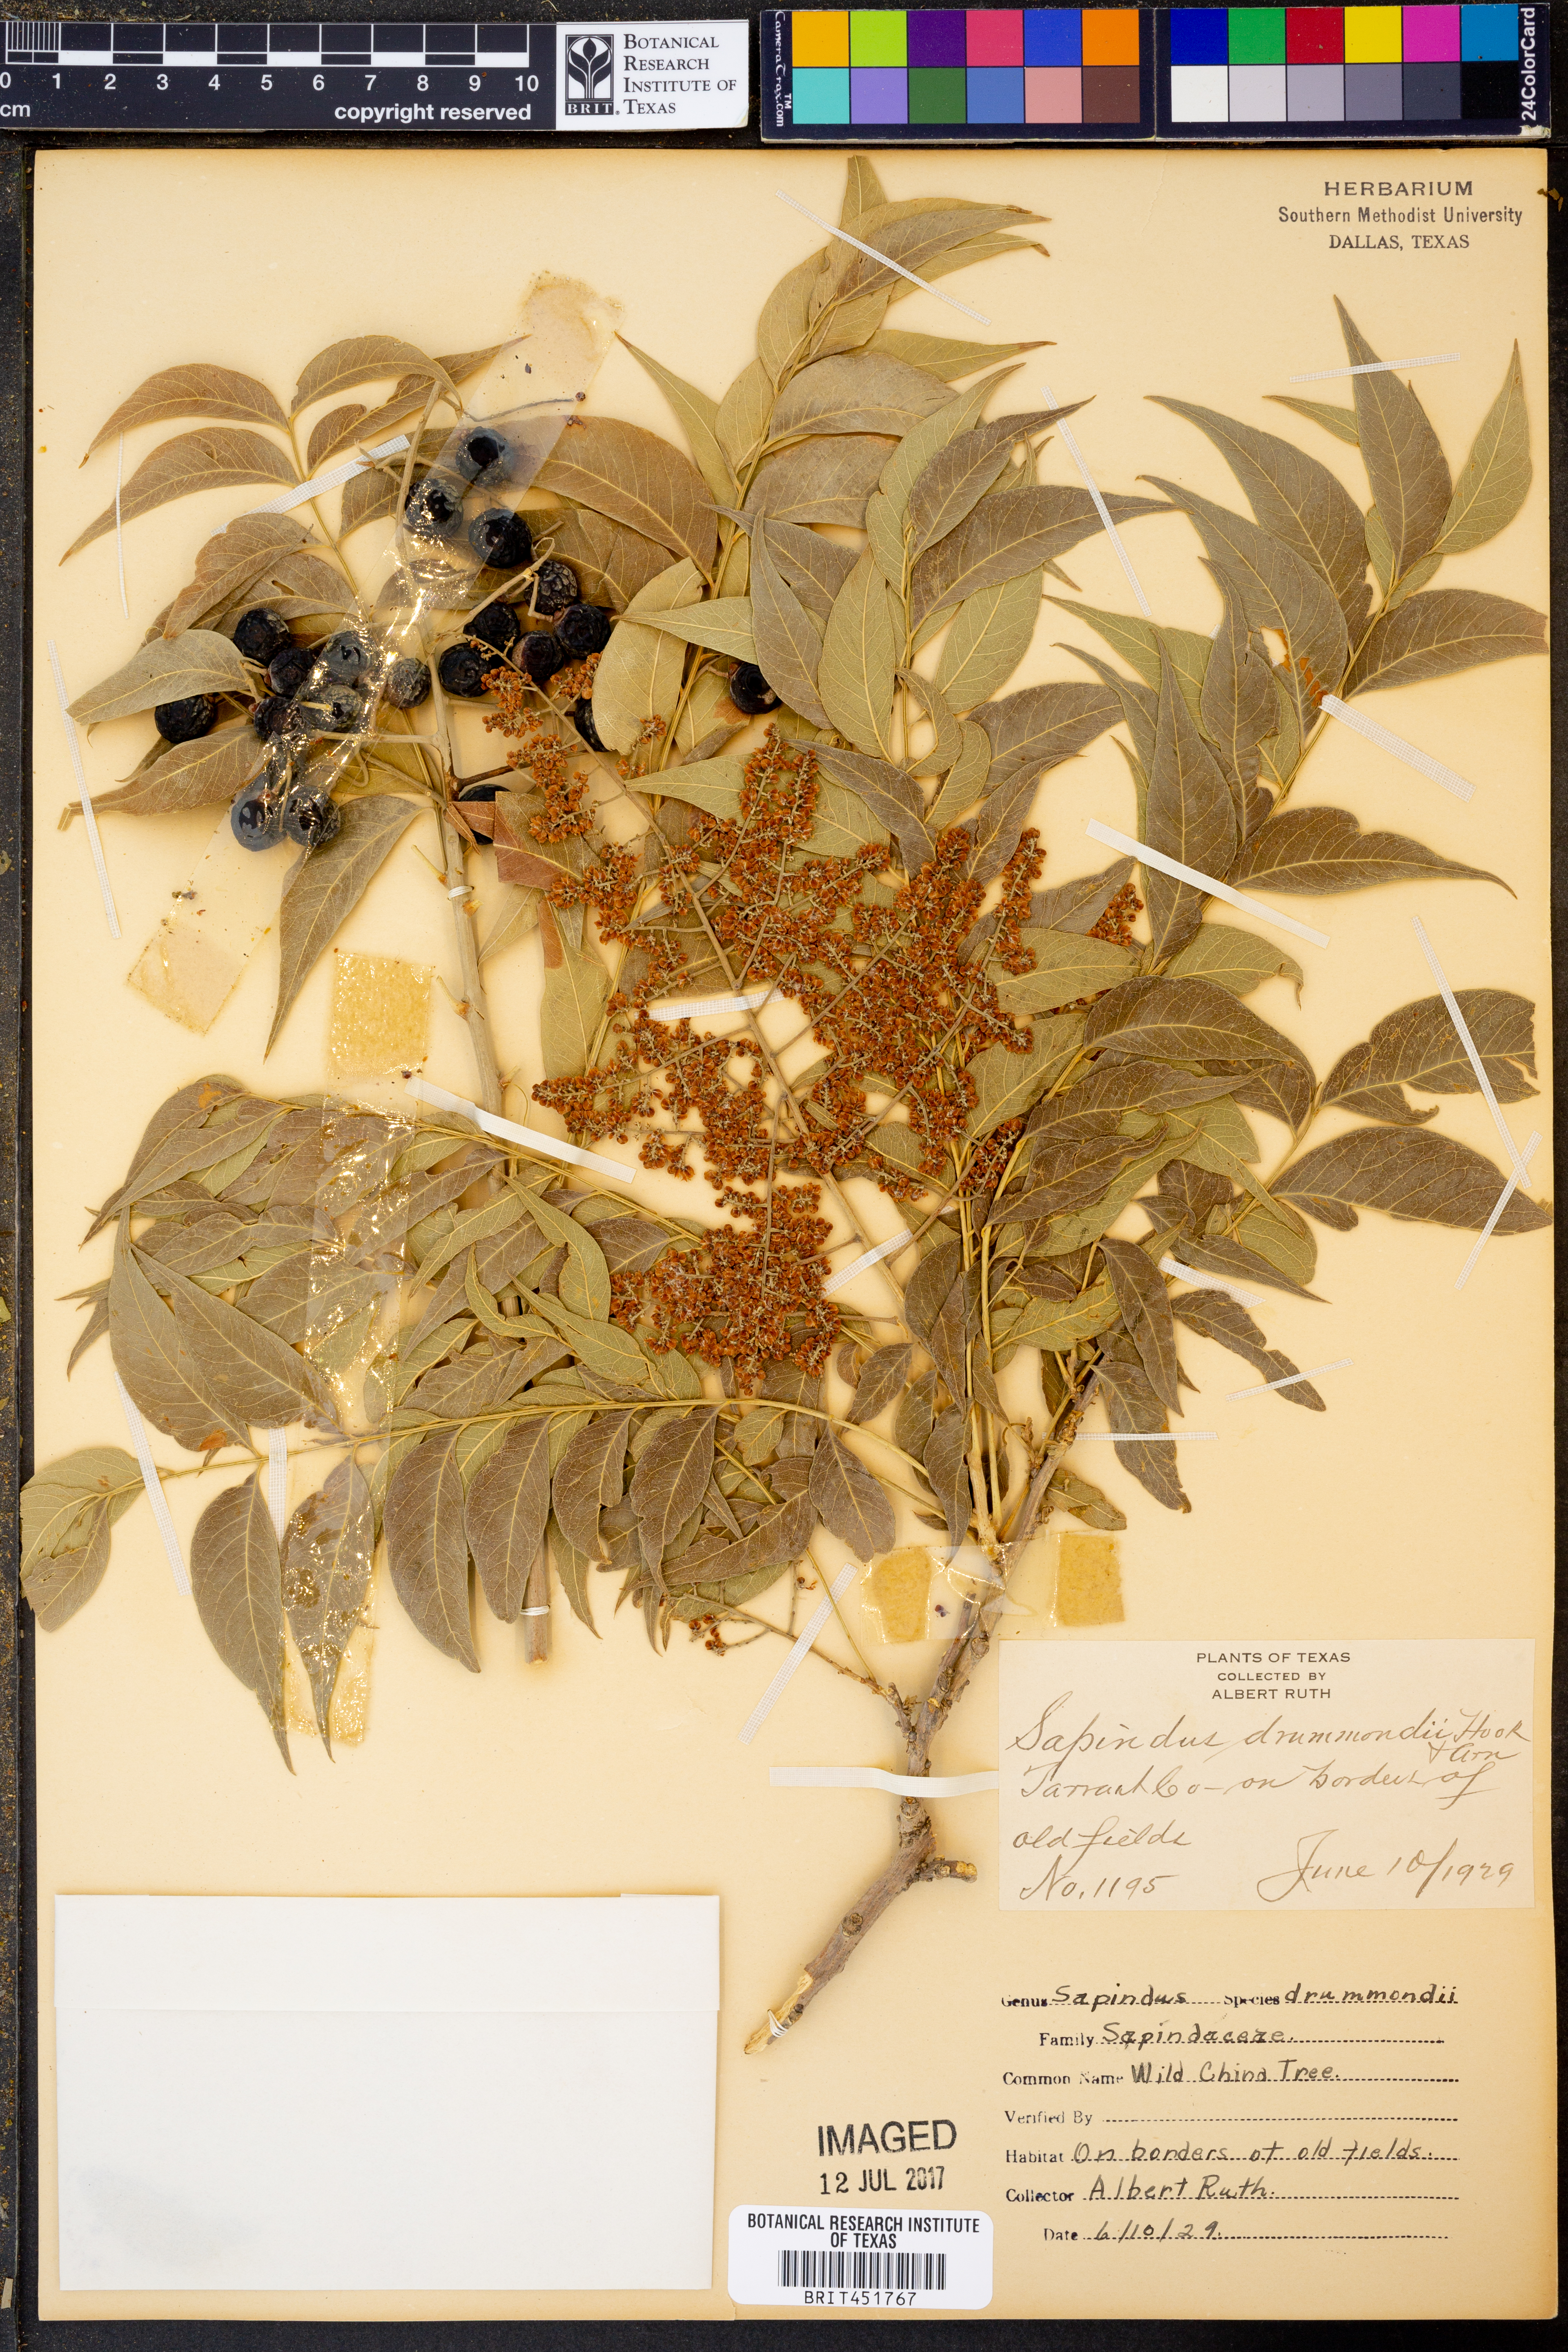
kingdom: Plantae
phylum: Tracheophyta
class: Magnoliopsida
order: Sapindales
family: Sapindaceae
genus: Sapindus
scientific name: Sapindus drummondii
